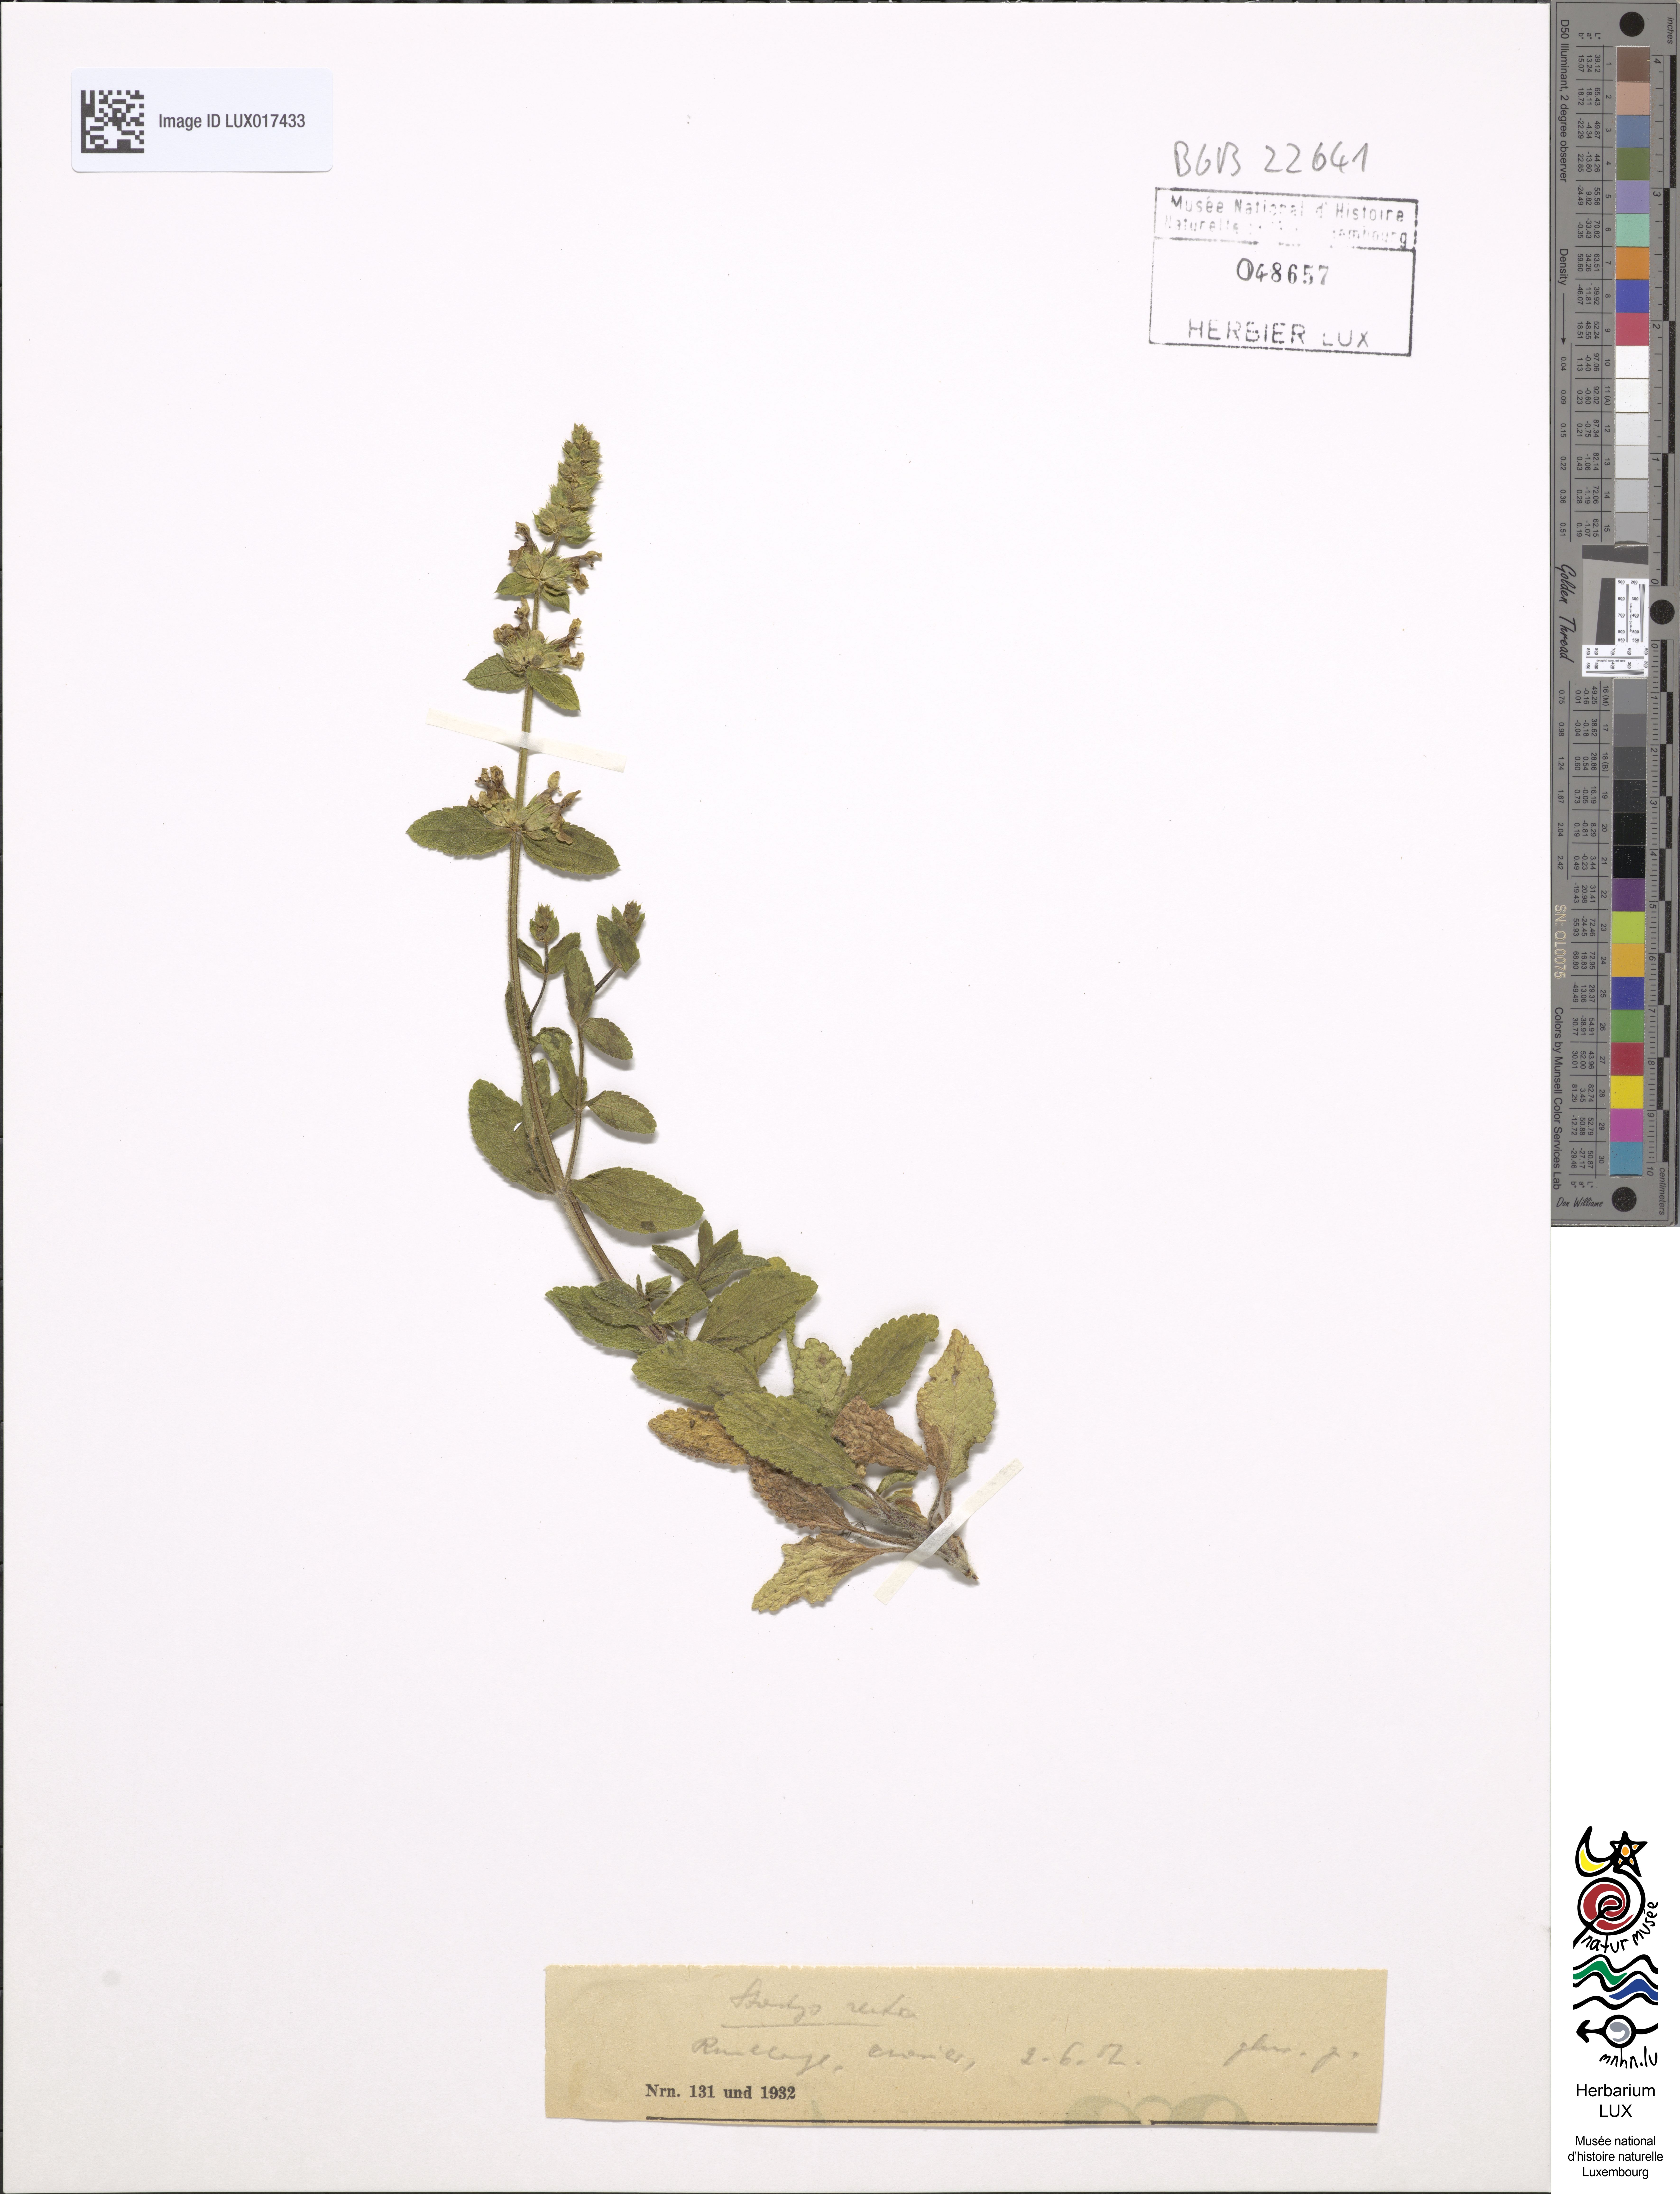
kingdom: Plantae
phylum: Tracheophyta
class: Magnoliopsida
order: Lamiales
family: Lamiaceae
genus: Stachys
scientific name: Stachys recta
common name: Perennial yellow-woundwort
